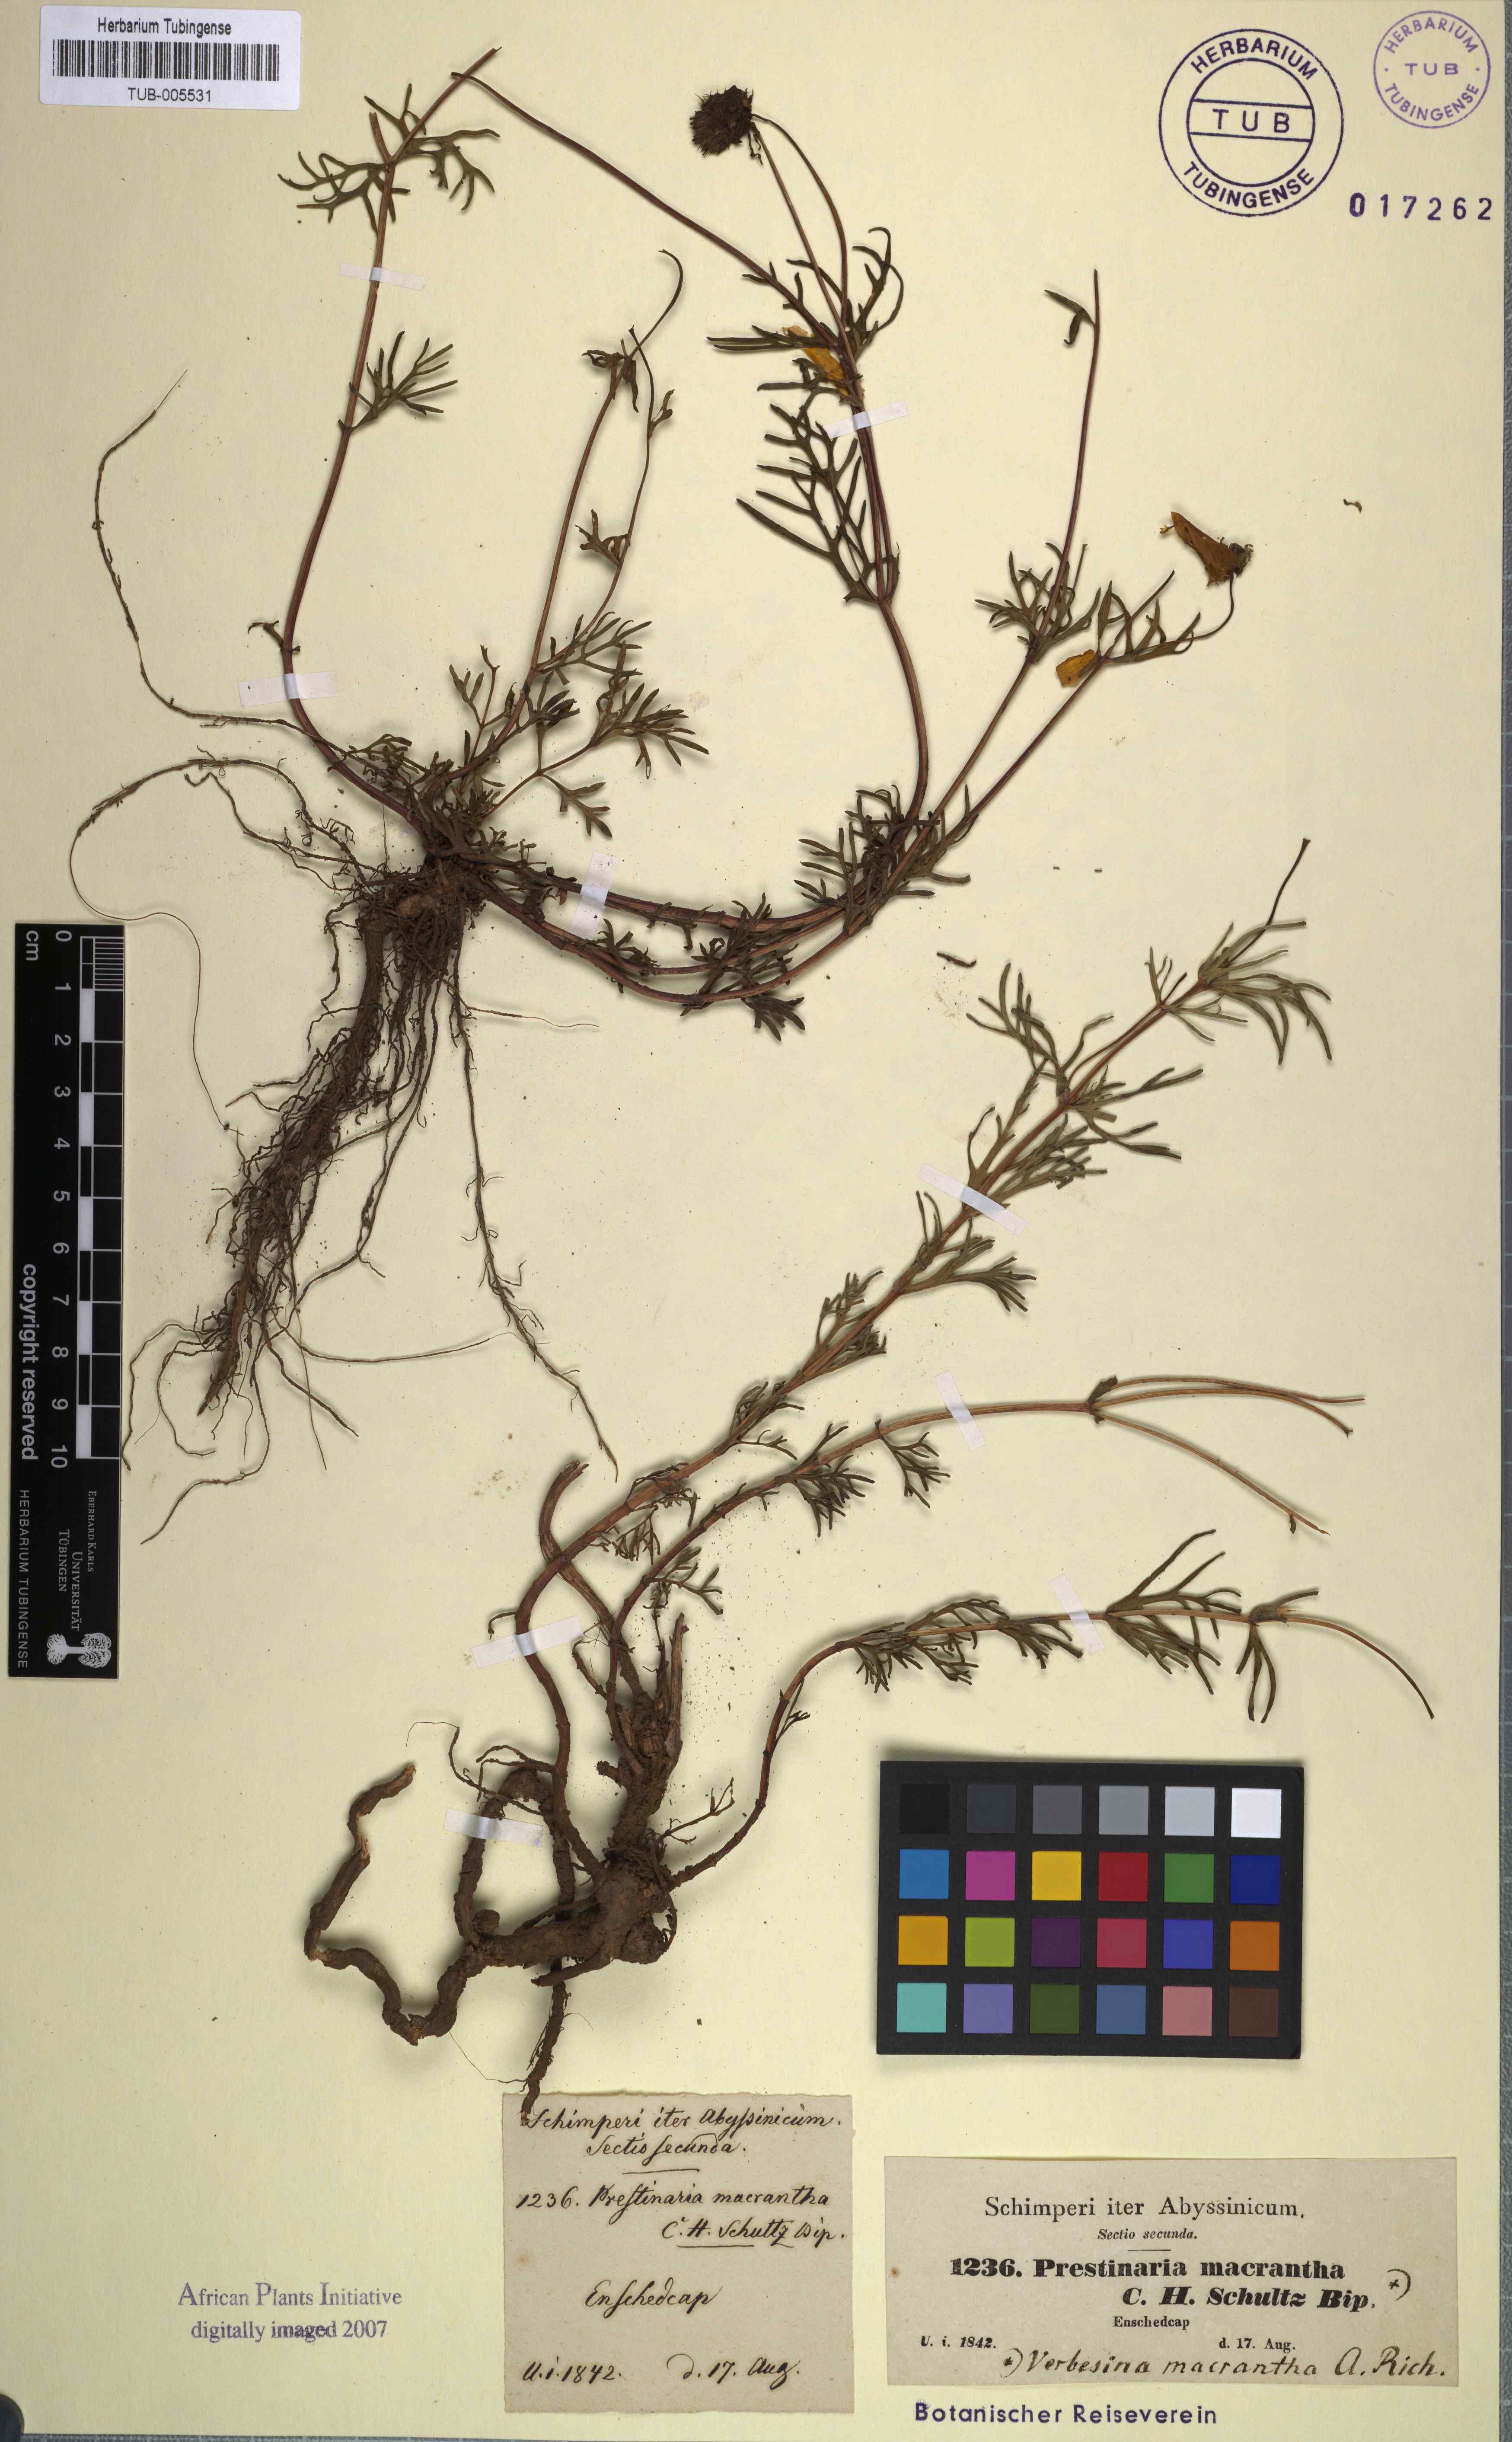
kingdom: Plantae
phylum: Tracheophyta
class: Magnoliopsida
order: Asterales
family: Asteraceae
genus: Bidens
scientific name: Bidens macroptera
